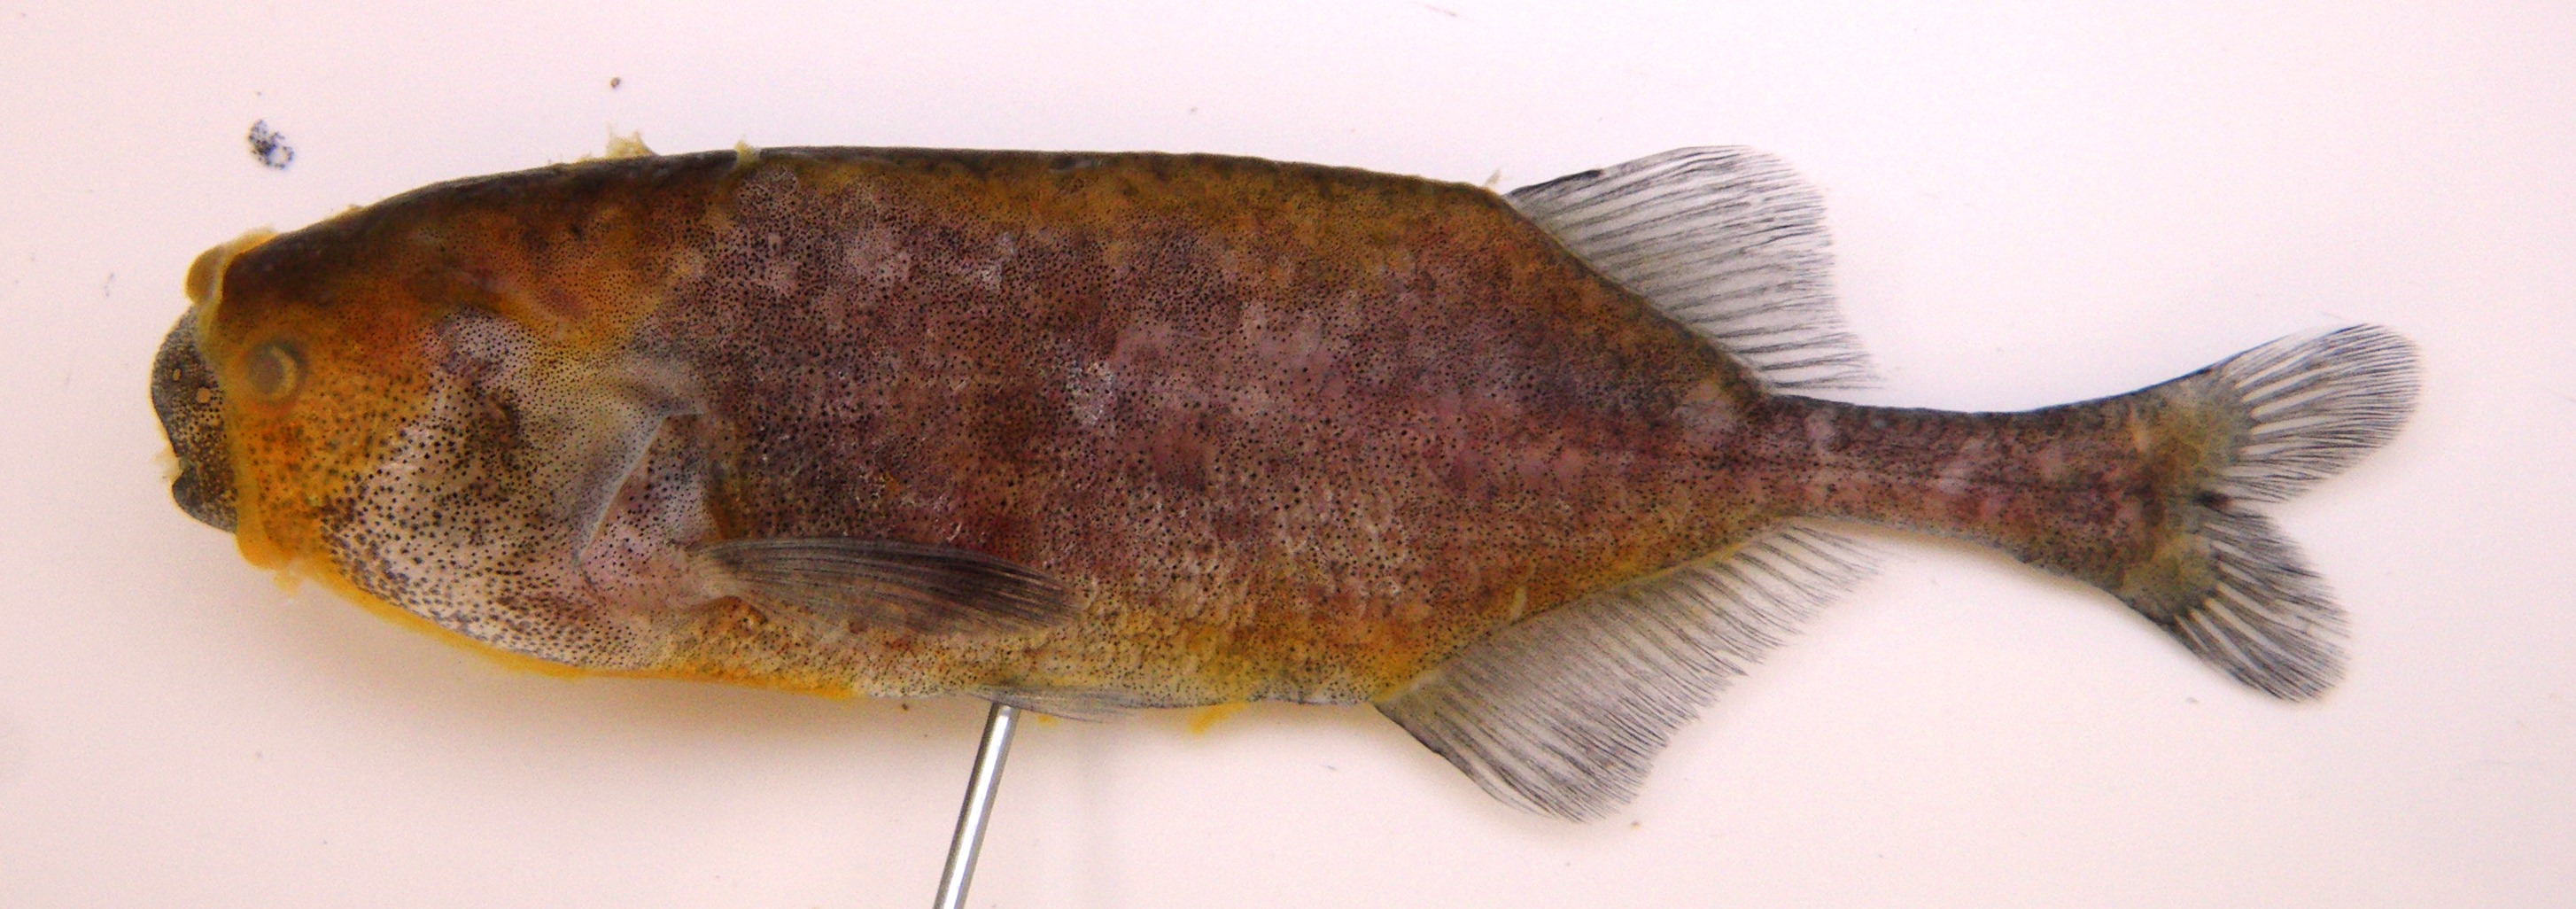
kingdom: Animalia
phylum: Chordata
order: Osteoglossiformes
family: Mormyridae
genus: Pollimyrus
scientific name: Pollimyrus castelnaui
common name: Dwarf stonebasher
